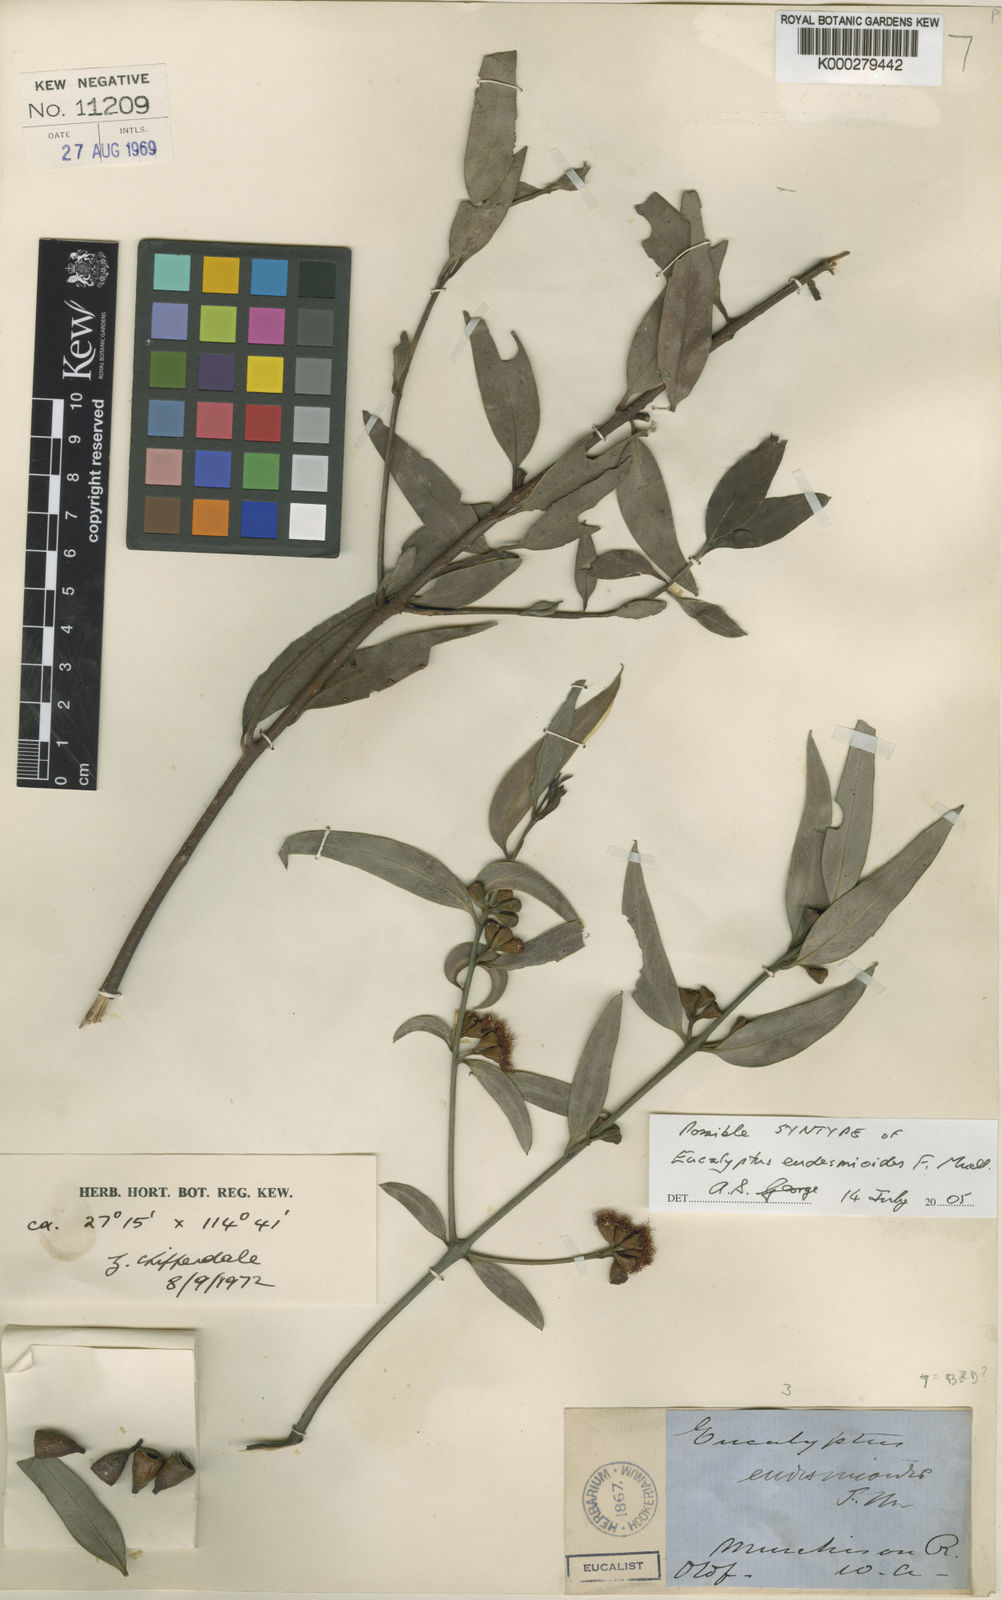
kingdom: Plantae
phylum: Tracheophyta
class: Magnoliopsida
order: Myrtales
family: Myrtaceae
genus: Eucalyptus
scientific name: Eucalyptus eudesmioides
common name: Desert gum
